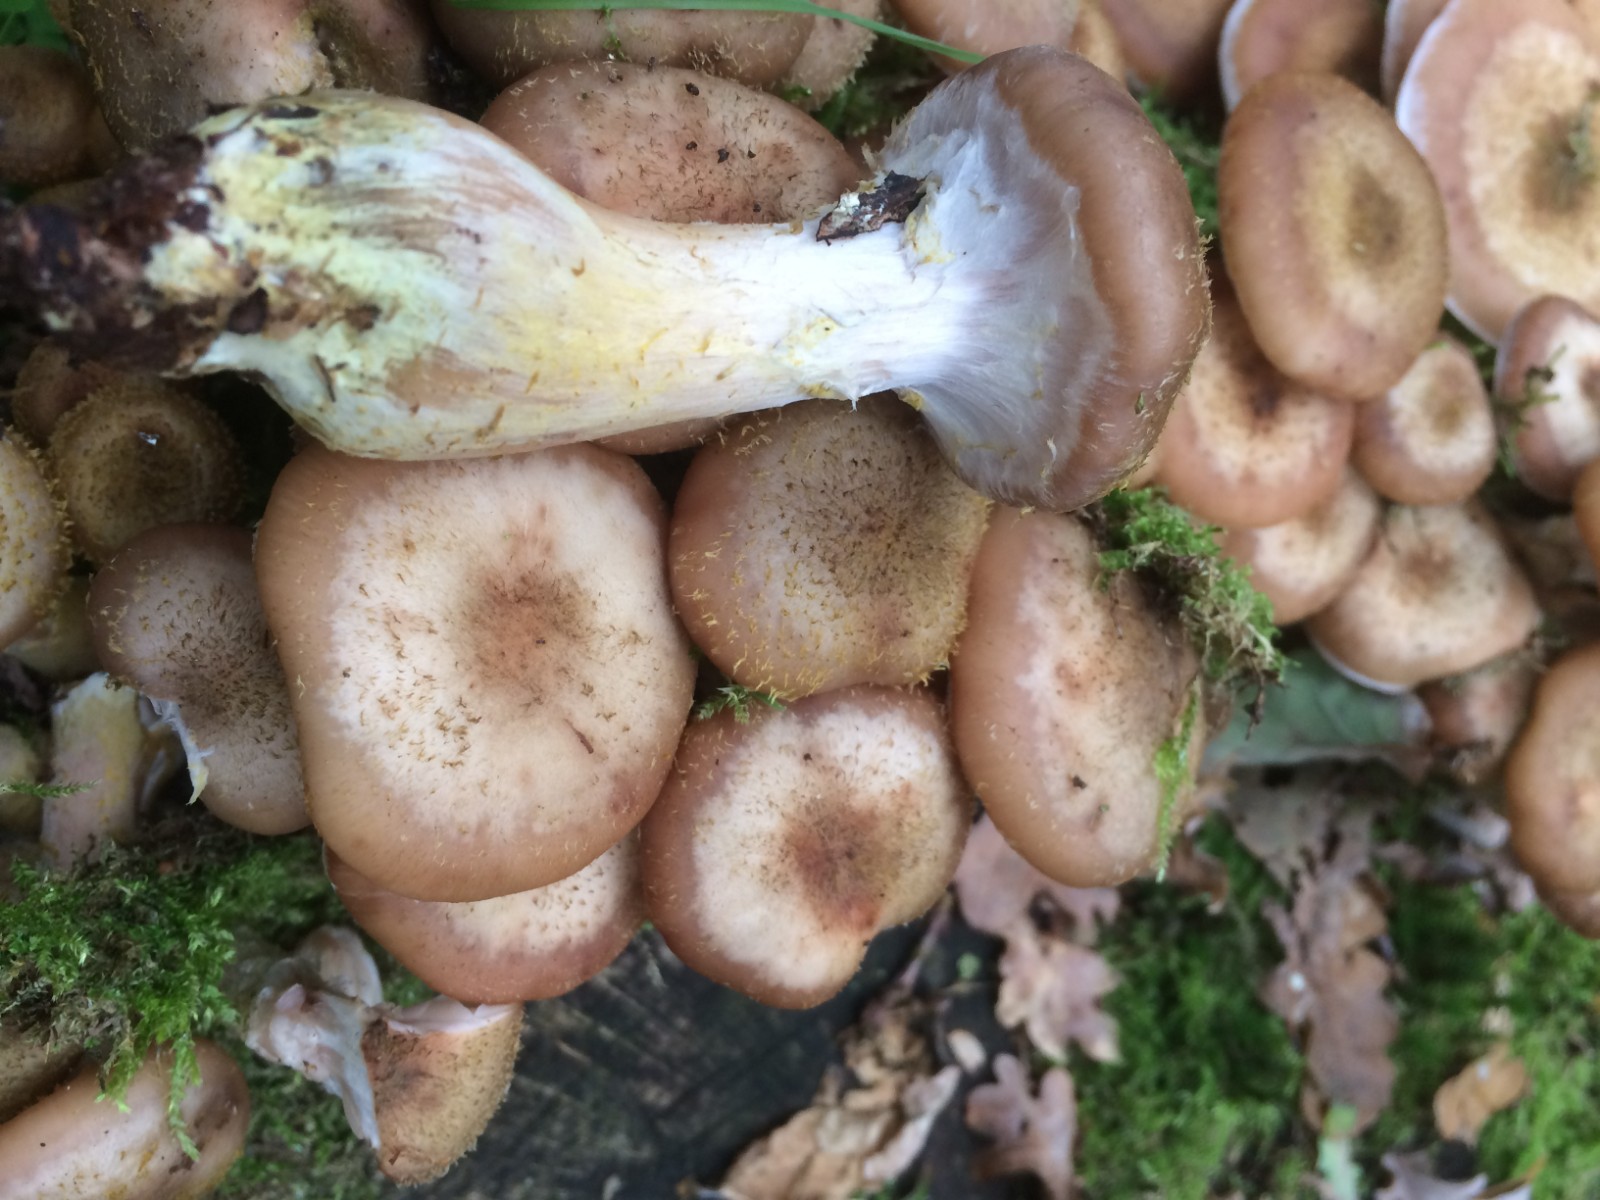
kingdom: Fungi
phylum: Basidiomycota
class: Agaricomycetes
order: Agaricales
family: Physalacriaceae
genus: Armillaria
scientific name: Armillaria lutea
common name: køllestokket honningsvamp
